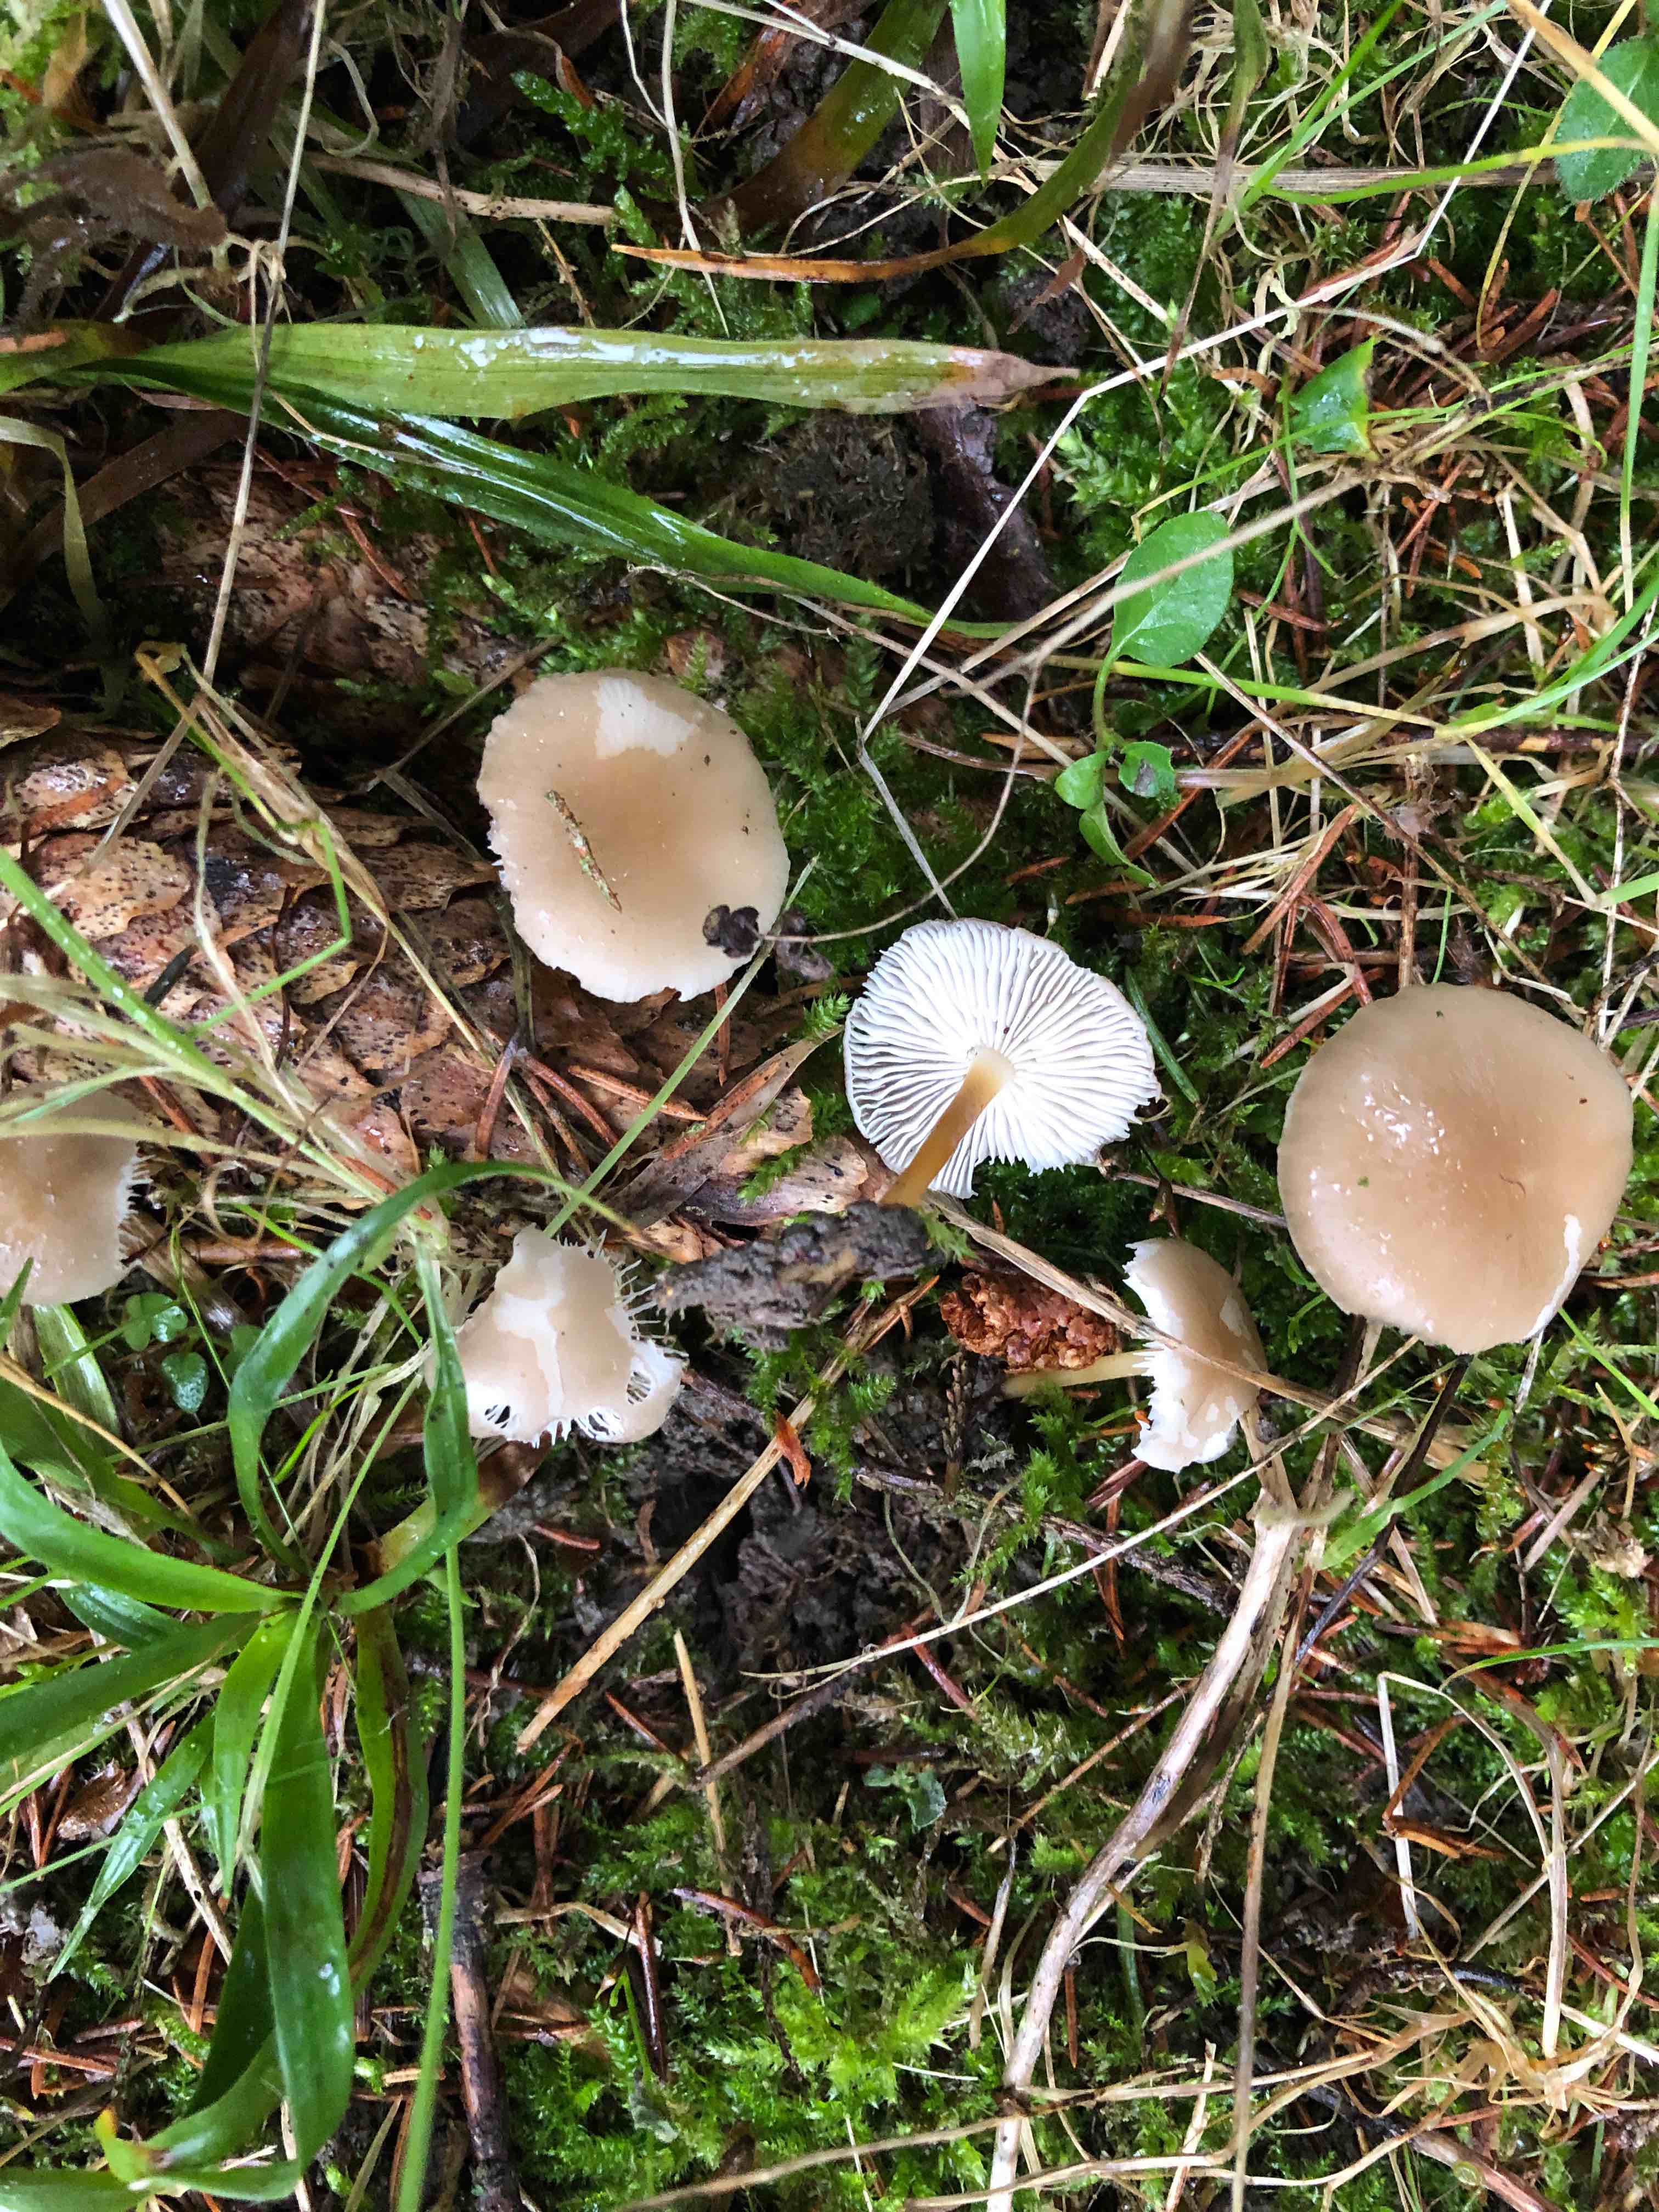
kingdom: Fungi
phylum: Basidiomycota
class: Agaricomycetes
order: Agaricales
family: Physalacriaceae
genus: Strobilurus
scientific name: Strobilurus esculentus
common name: gran-koglehat
